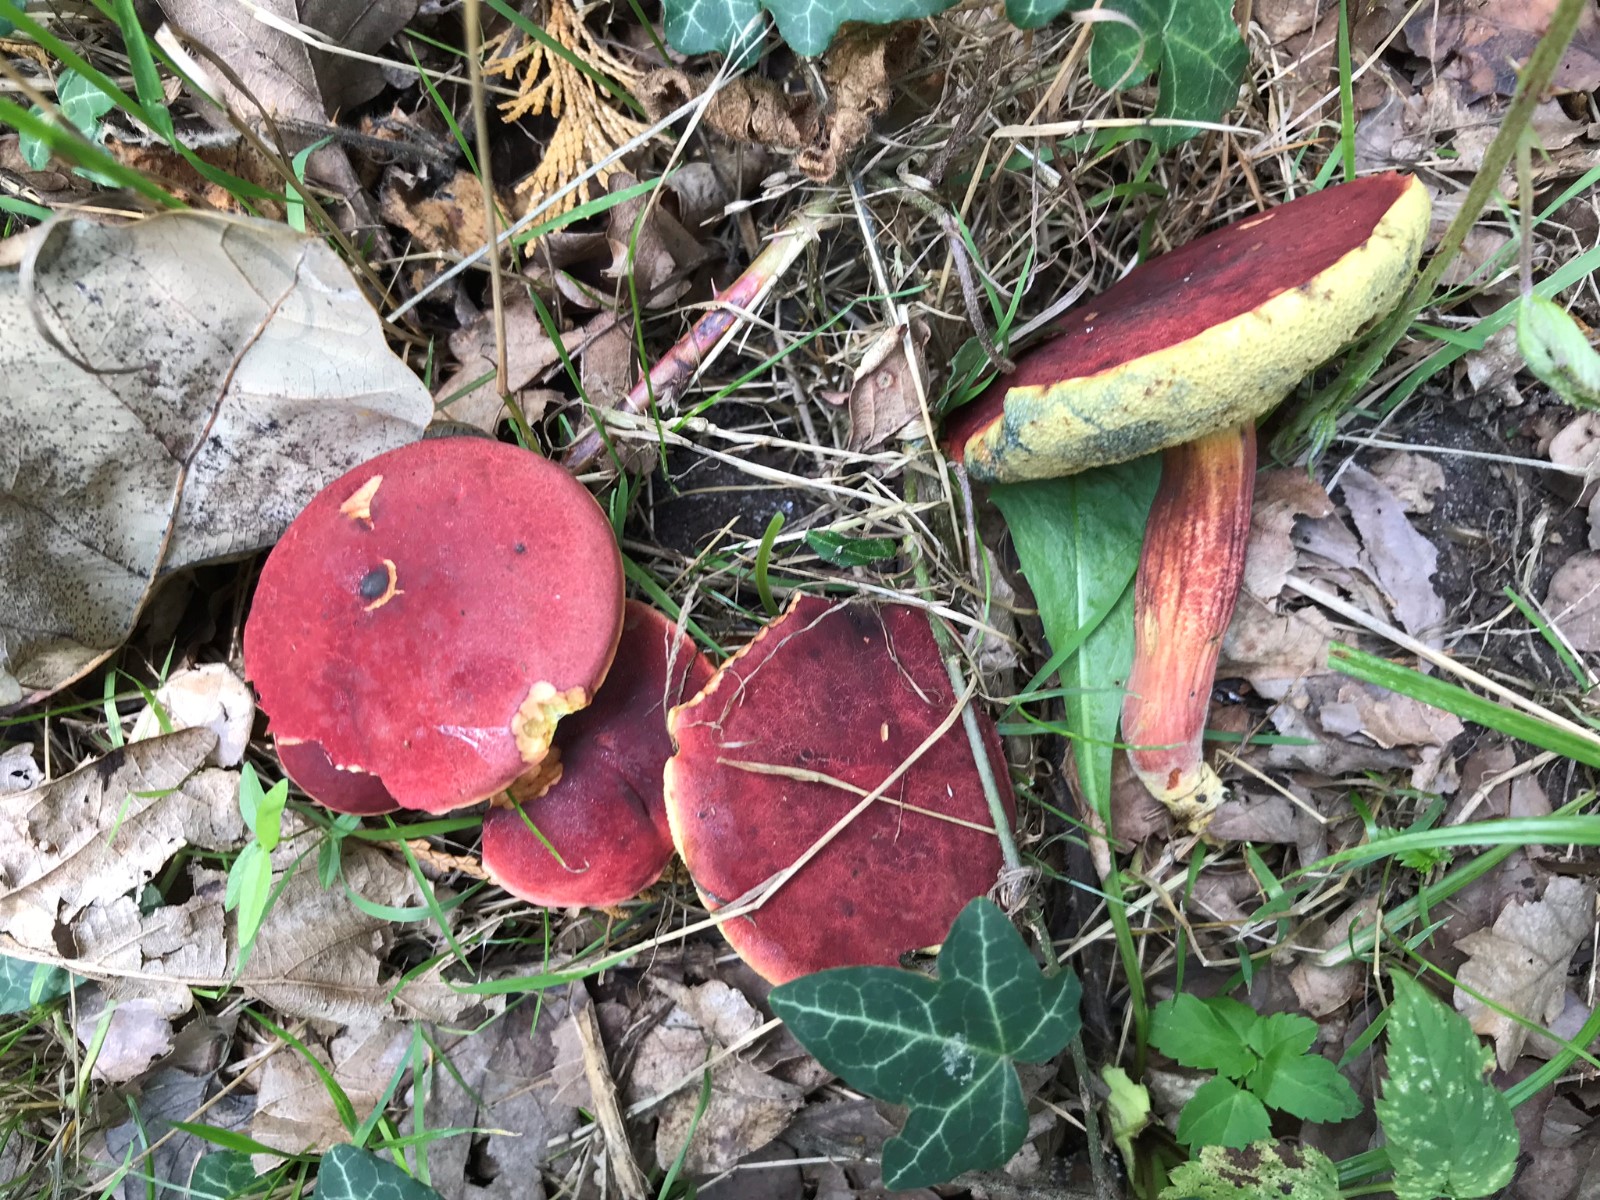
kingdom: Fungi
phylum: Basidiomycota
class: Agaricomycetes
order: Boletales
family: Boletaceae
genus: Hortiboletus
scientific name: Hortiboletus rubellus
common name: blodrød rørhat
